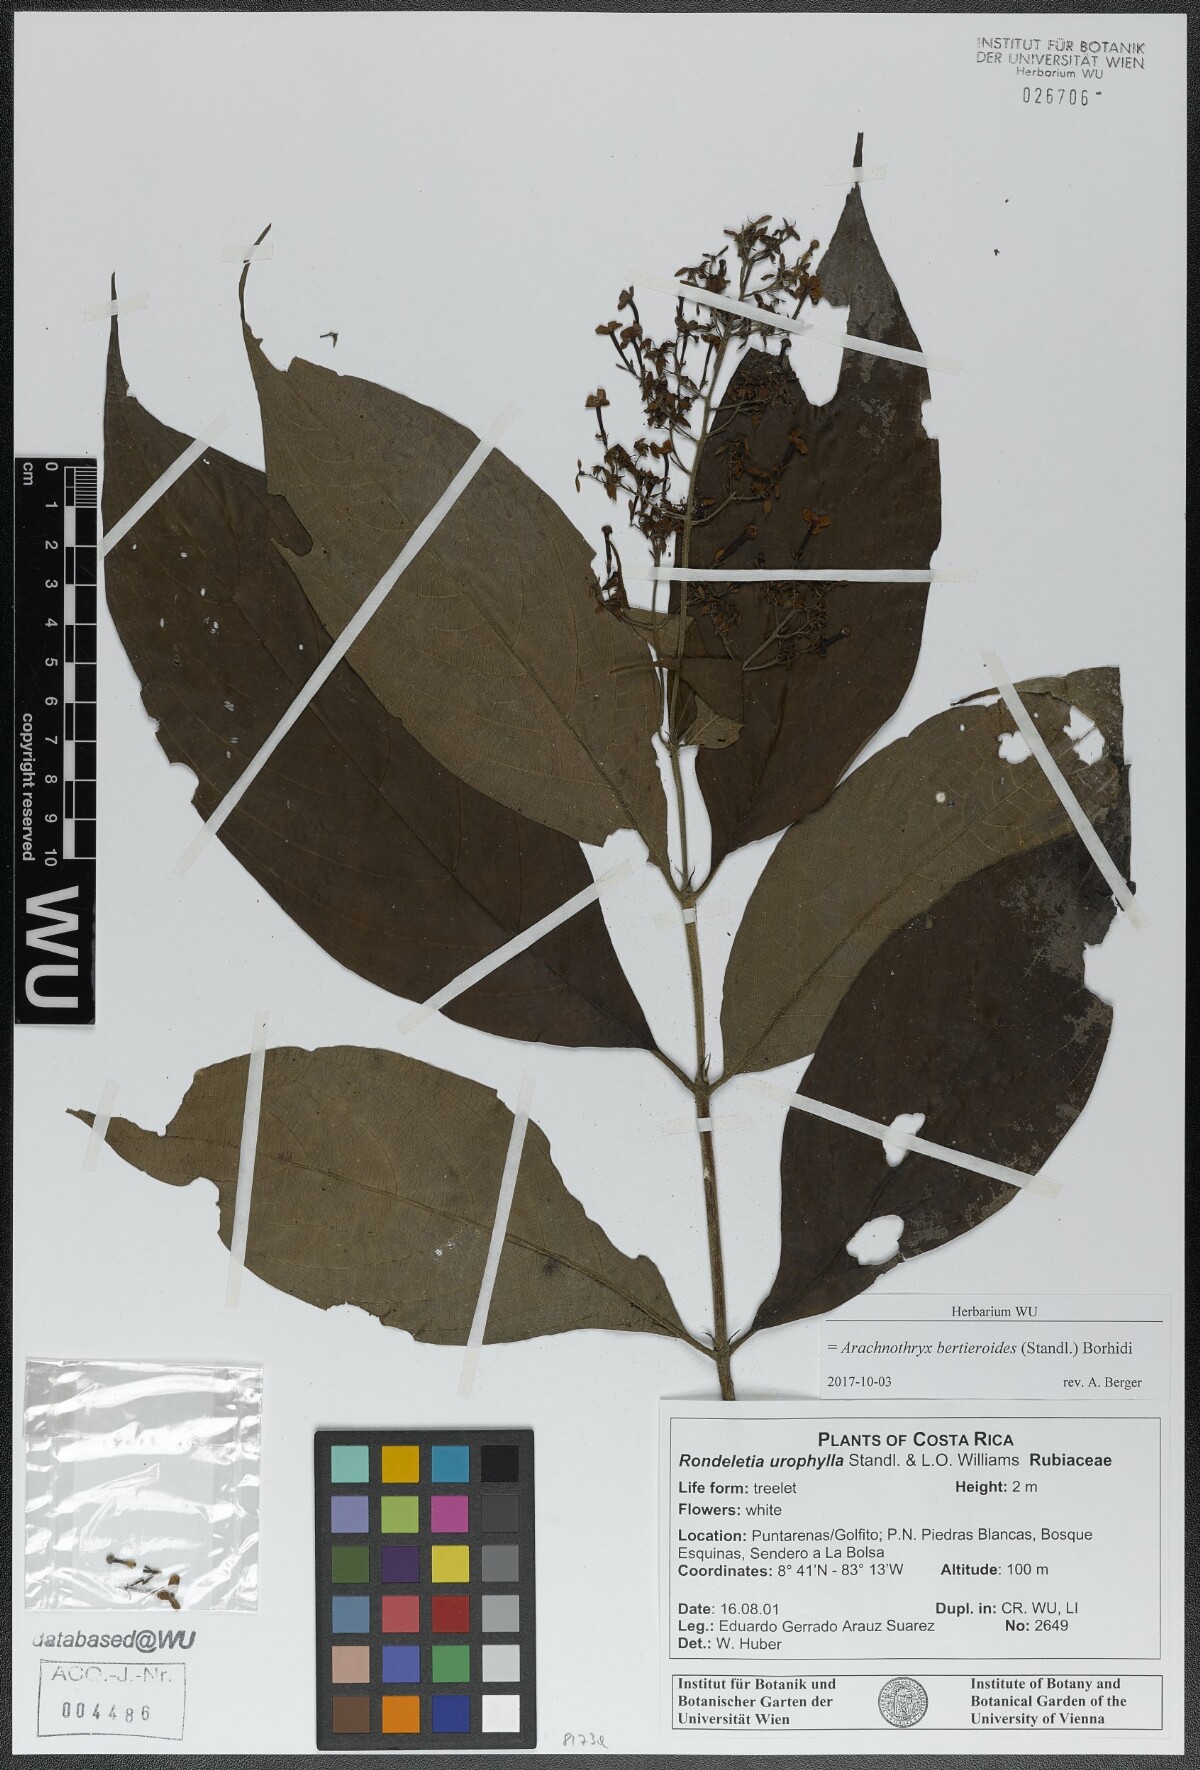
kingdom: Plantae
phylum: Tracheophyta
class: Magnoliopsida
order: Gentianales
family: Rubiaceae
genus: Arachnothryx
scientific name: Arachnothryx bertieroides
